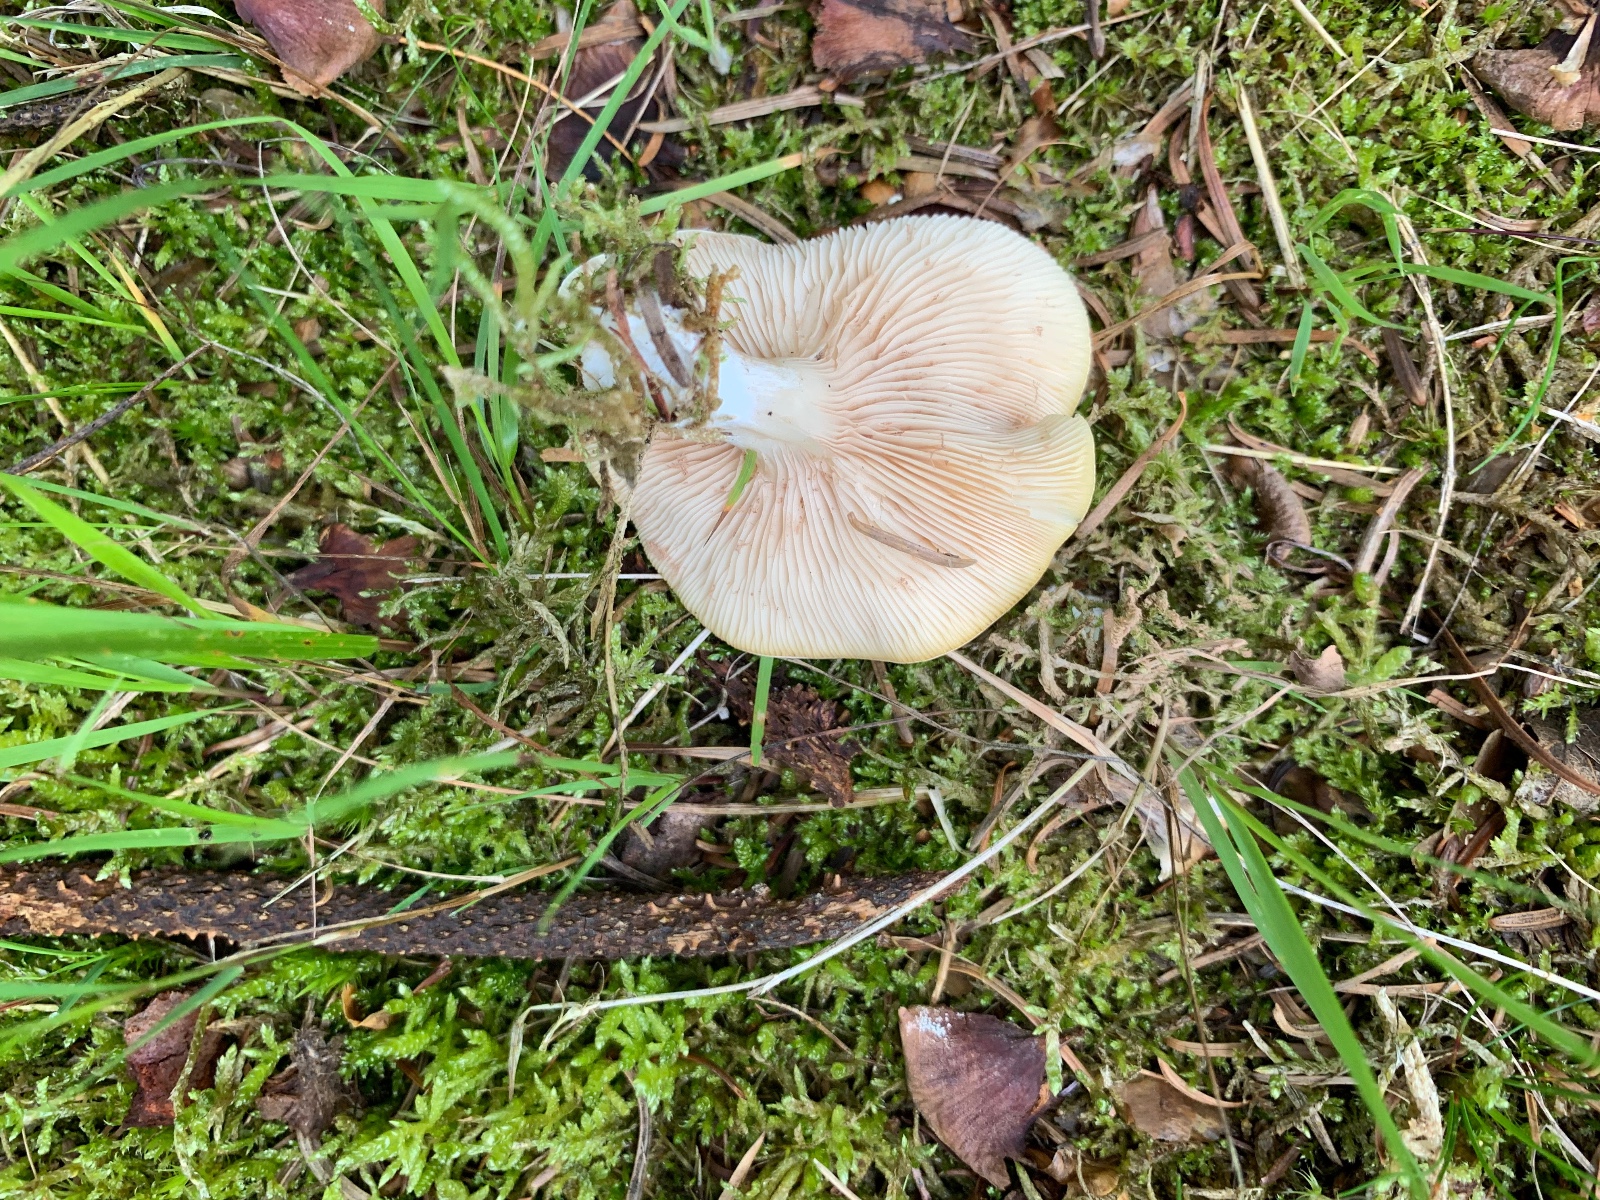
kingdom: Fungi
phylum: Basidiomycota
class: Agaricomycetes
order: Agaricales
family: Entolomataceae
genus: Clitopilus
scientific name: Clitopilus prunulus
